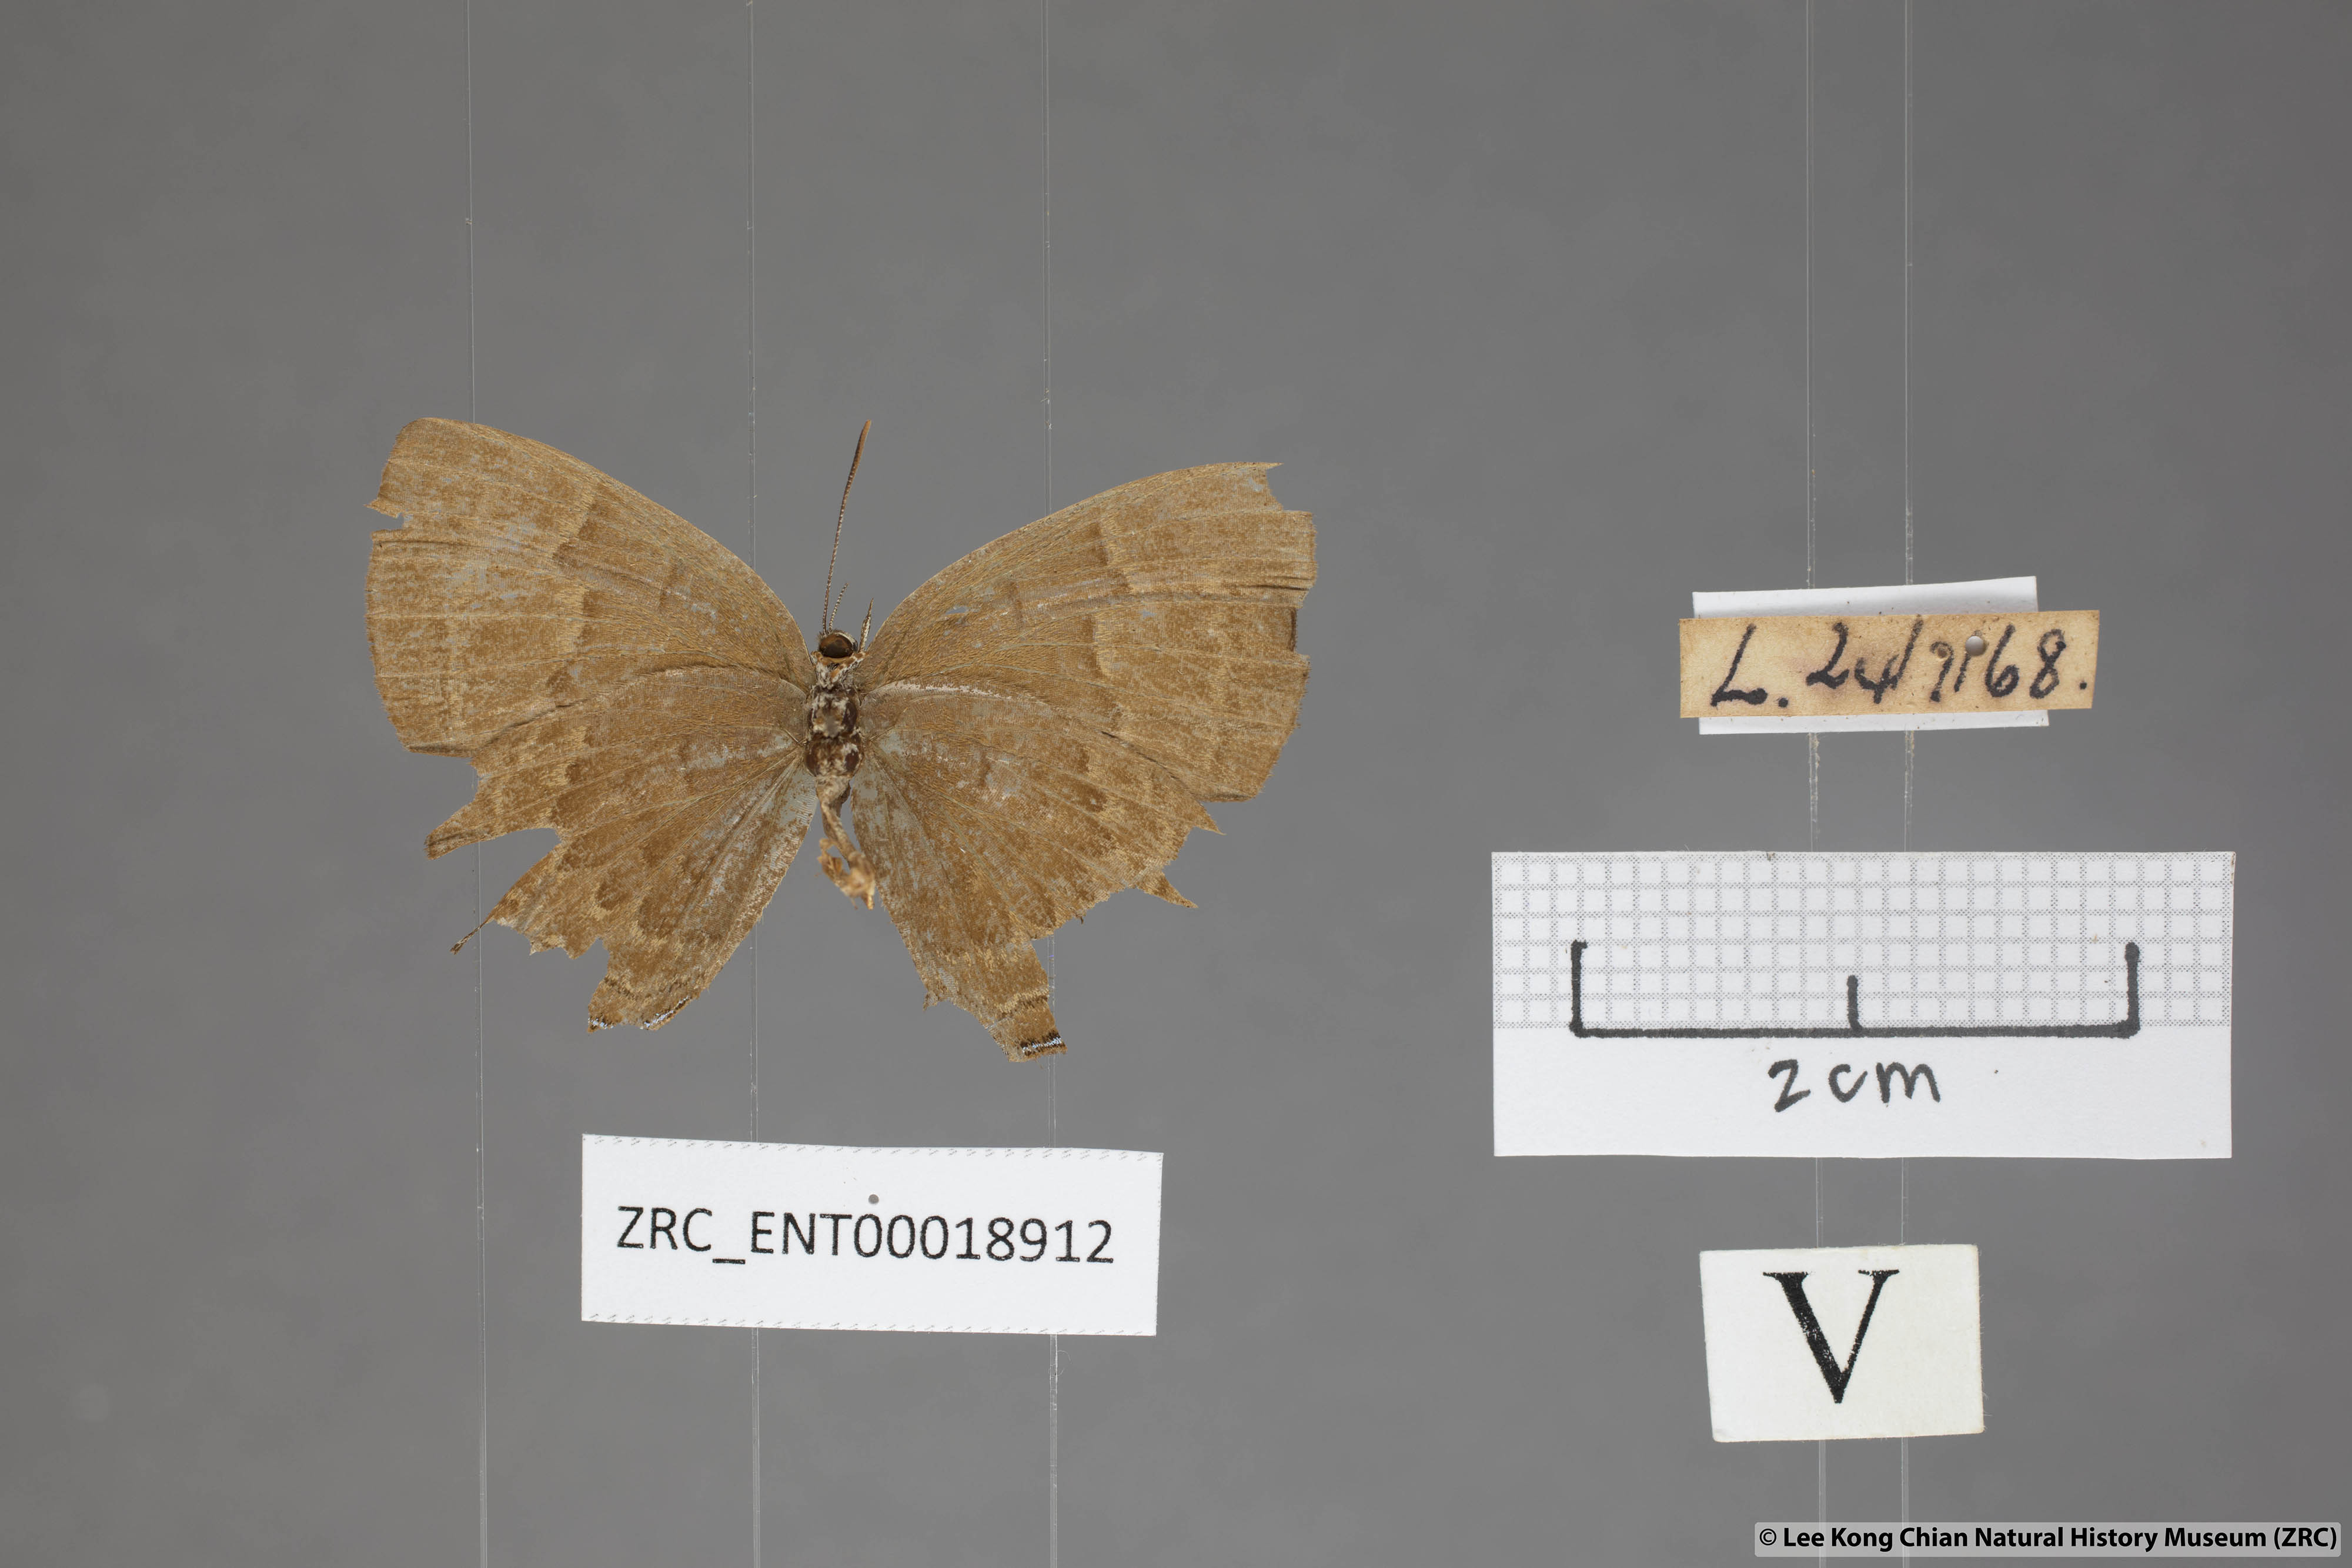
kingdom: Animalia
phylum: Arthropoda
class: Insecta
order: Lepidoptera
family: Lycaenidae
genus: Simiskina
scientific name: Simiskina
